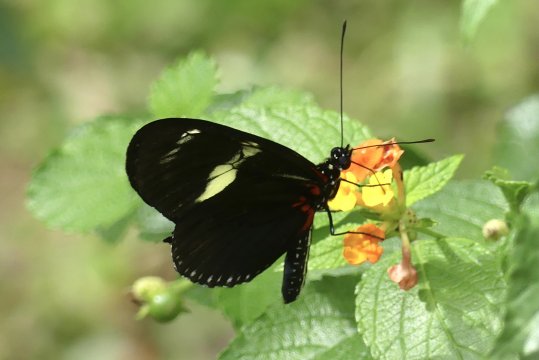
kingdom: Animalia
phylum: Arthropoda
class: Insecta
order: Lepidoptera
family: Nymphalidae
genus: Heliconius
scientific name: Heliconius doris
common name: Doris Longwing
